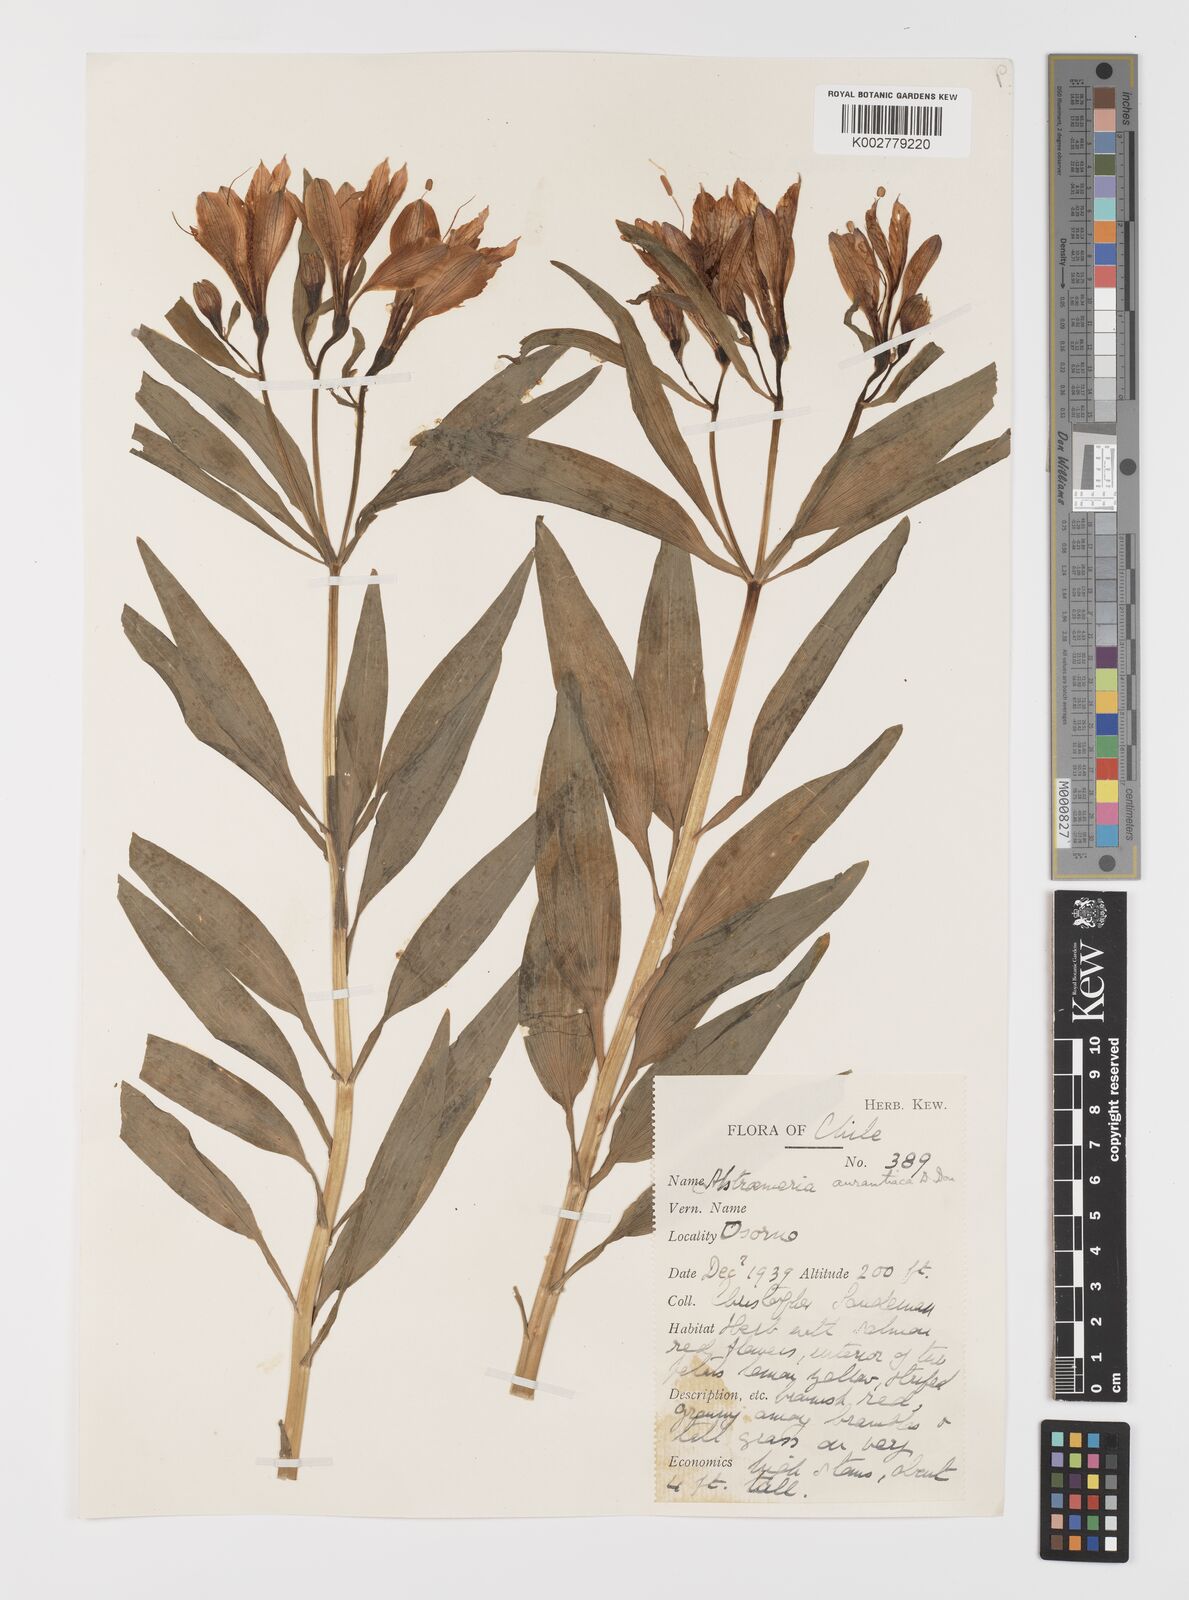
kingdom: Plantae
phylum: Tracheophyta
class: Liliopsida
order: Liliales
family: Alstroemeriaceae
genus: Alstroemeria
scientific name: Alstroemeria aurea
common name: Peruvian lily
